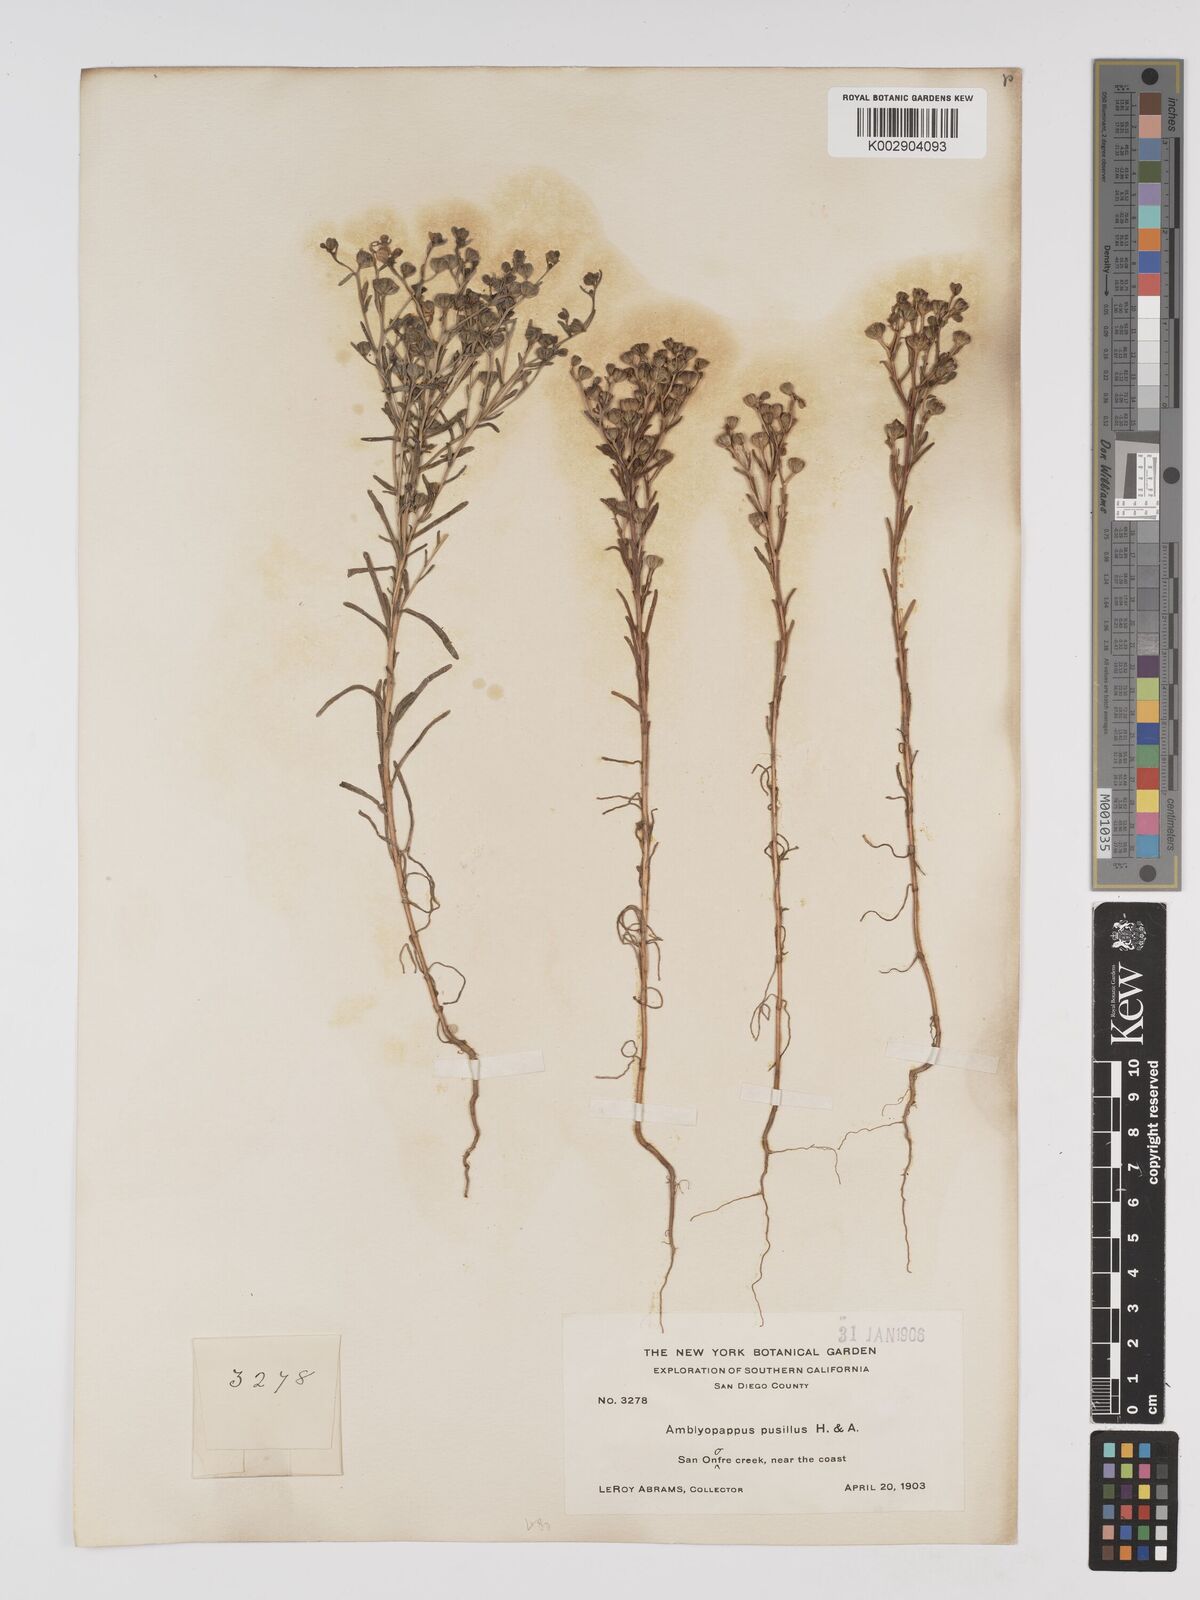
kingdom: Plantae
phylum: Tracheophyta
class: Magnoliopsida
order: Asterales
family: Asteraceae
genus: Amblyopappus
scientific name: Amblyopappus pusillus
